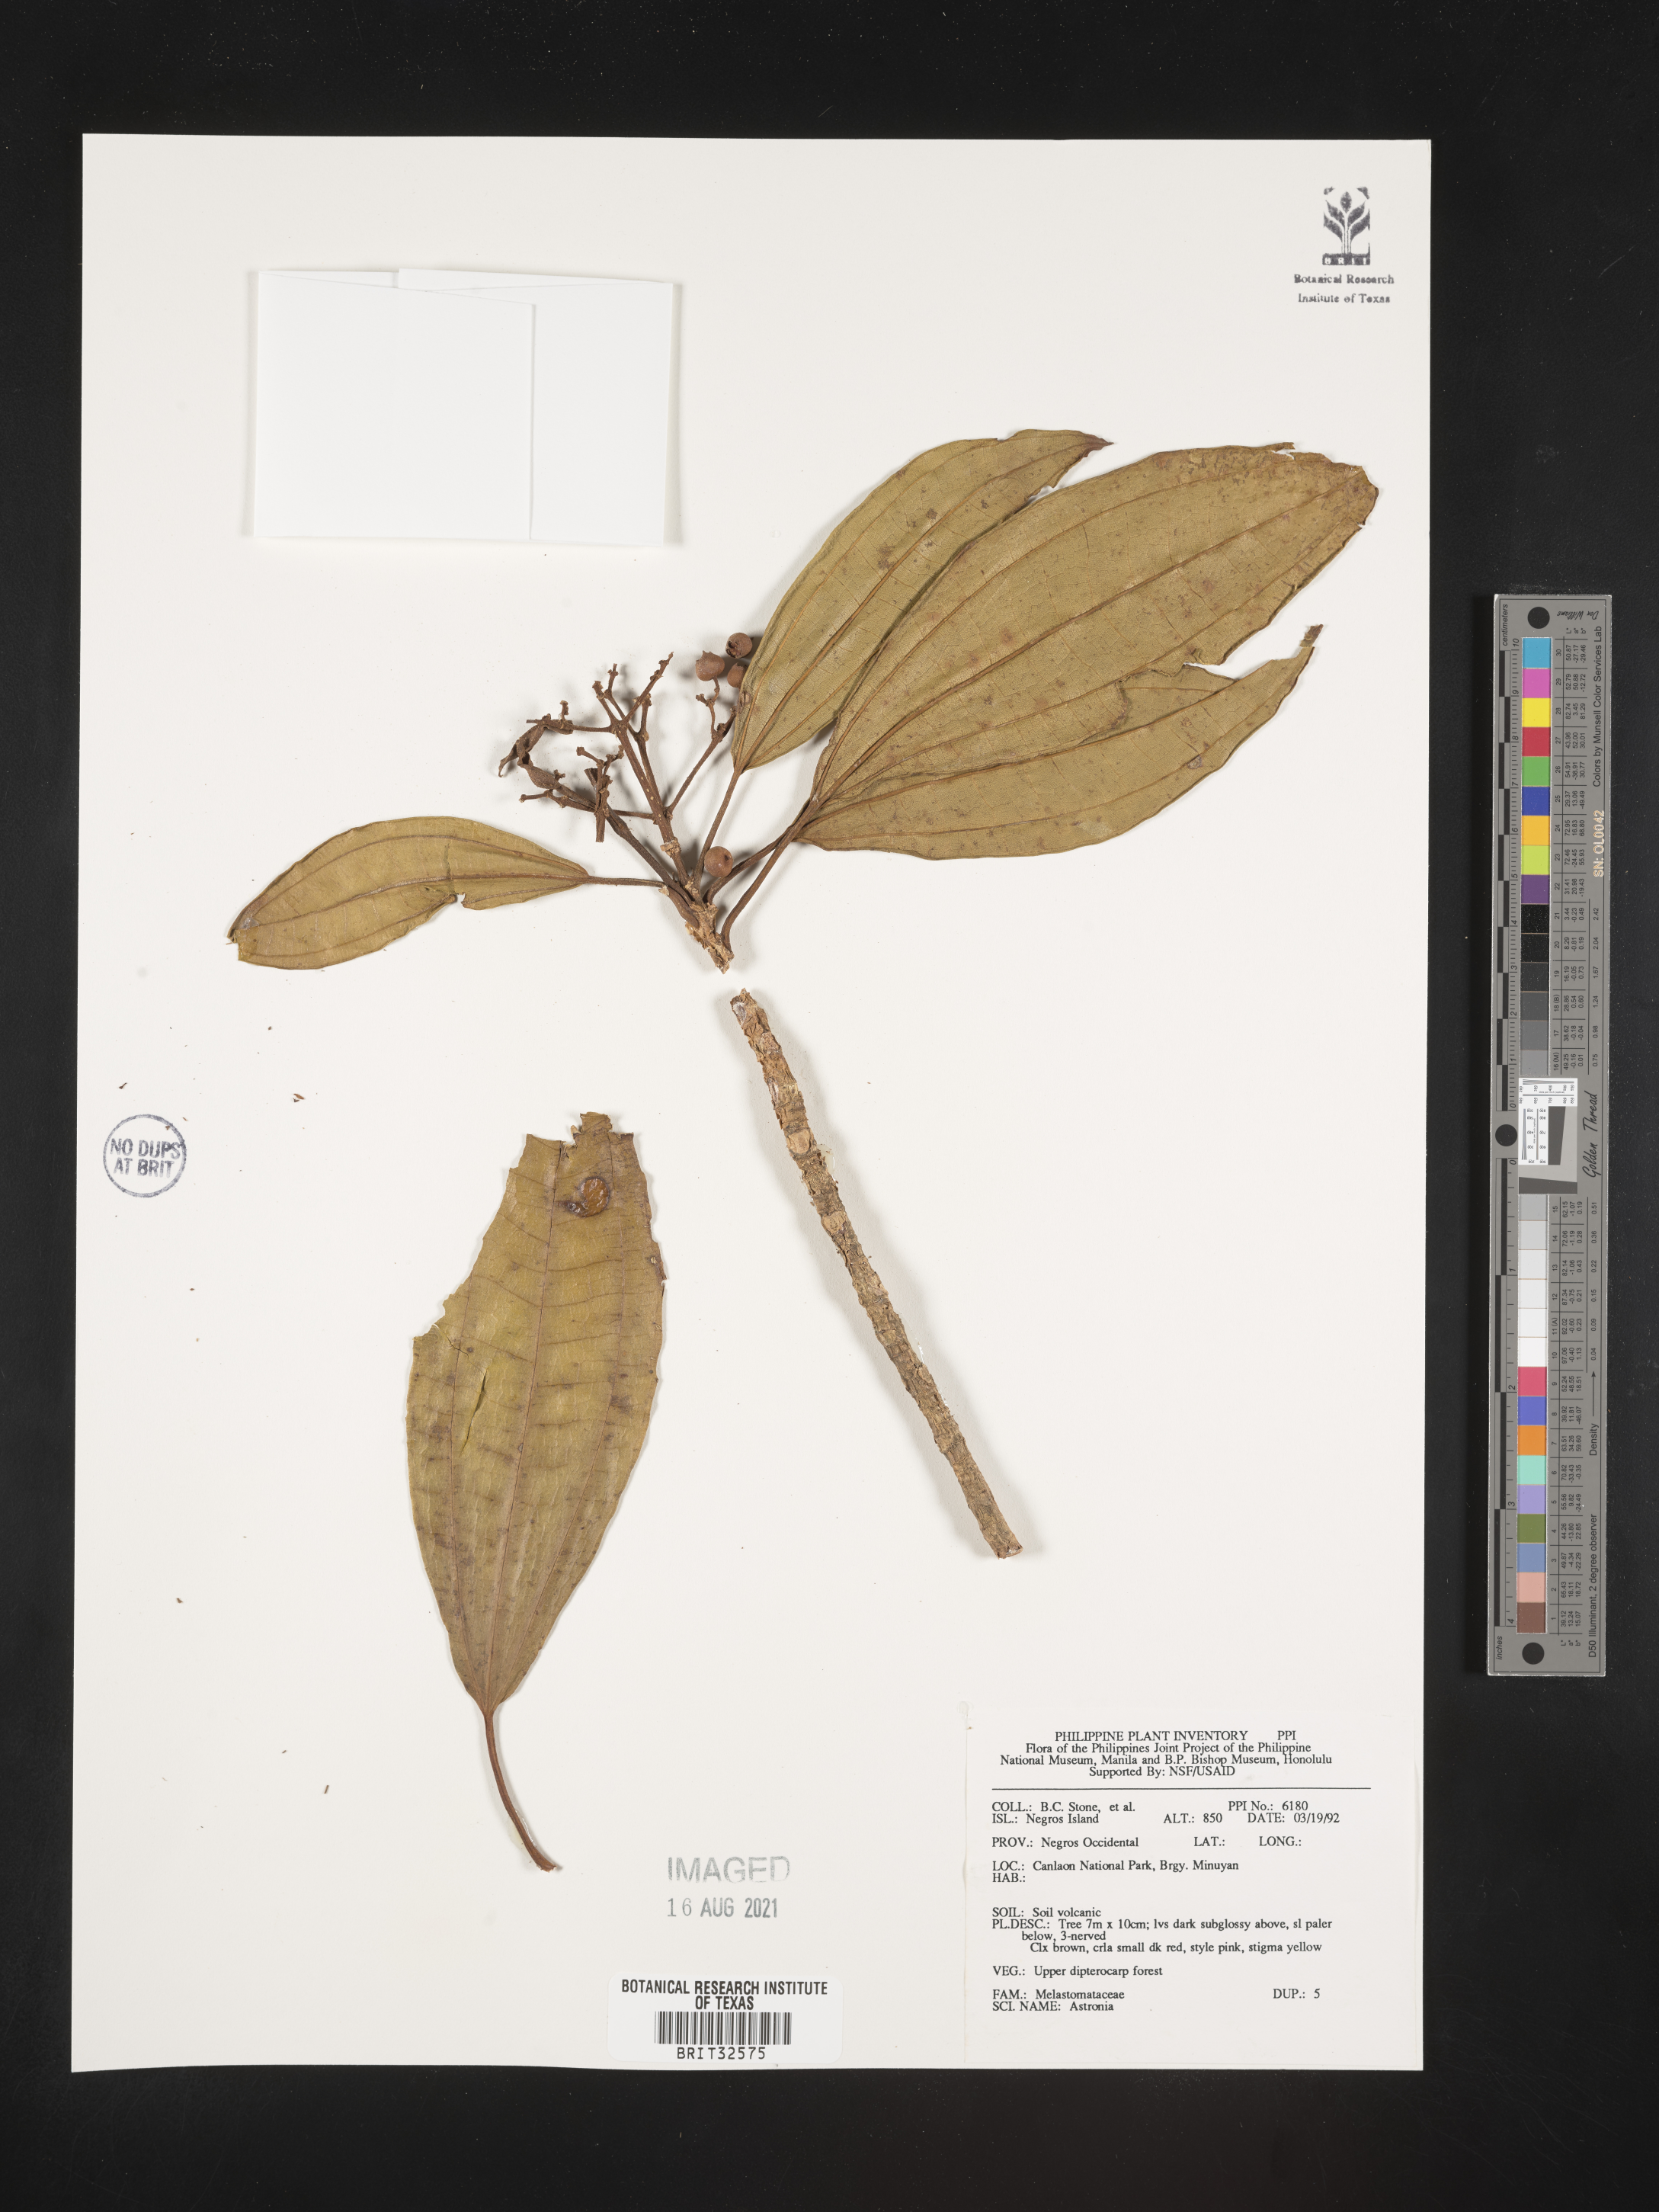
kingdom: Plantae
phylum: Tracheophyta
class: Magnoliopsida
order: Myrtales
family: Melastomataceae
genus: Astronia
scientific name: Astronia
